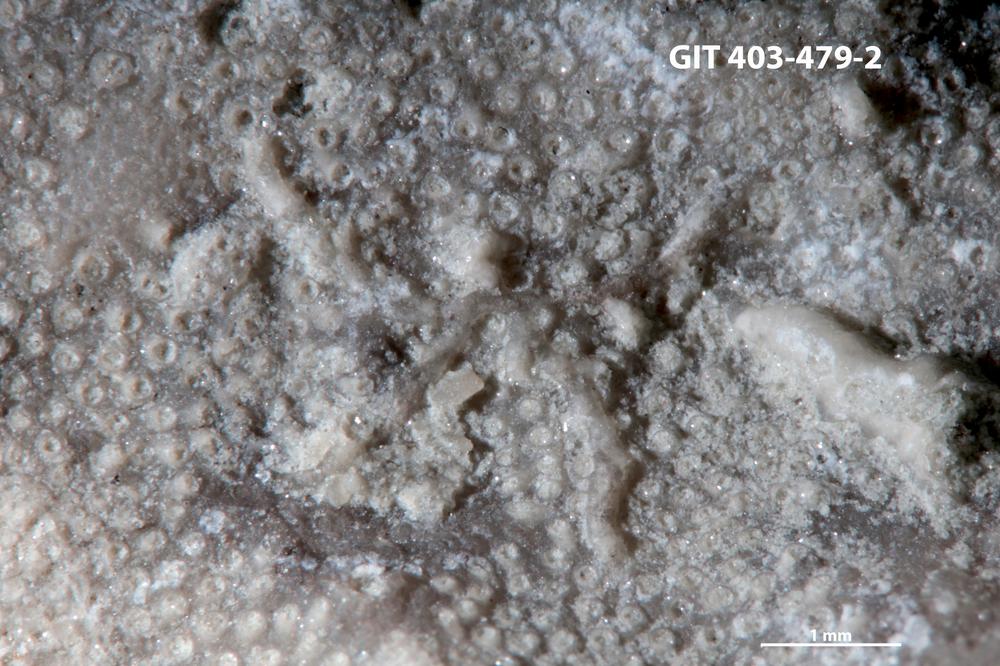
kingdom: Animalia
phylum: Bryozoa
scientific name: Bryozoa
